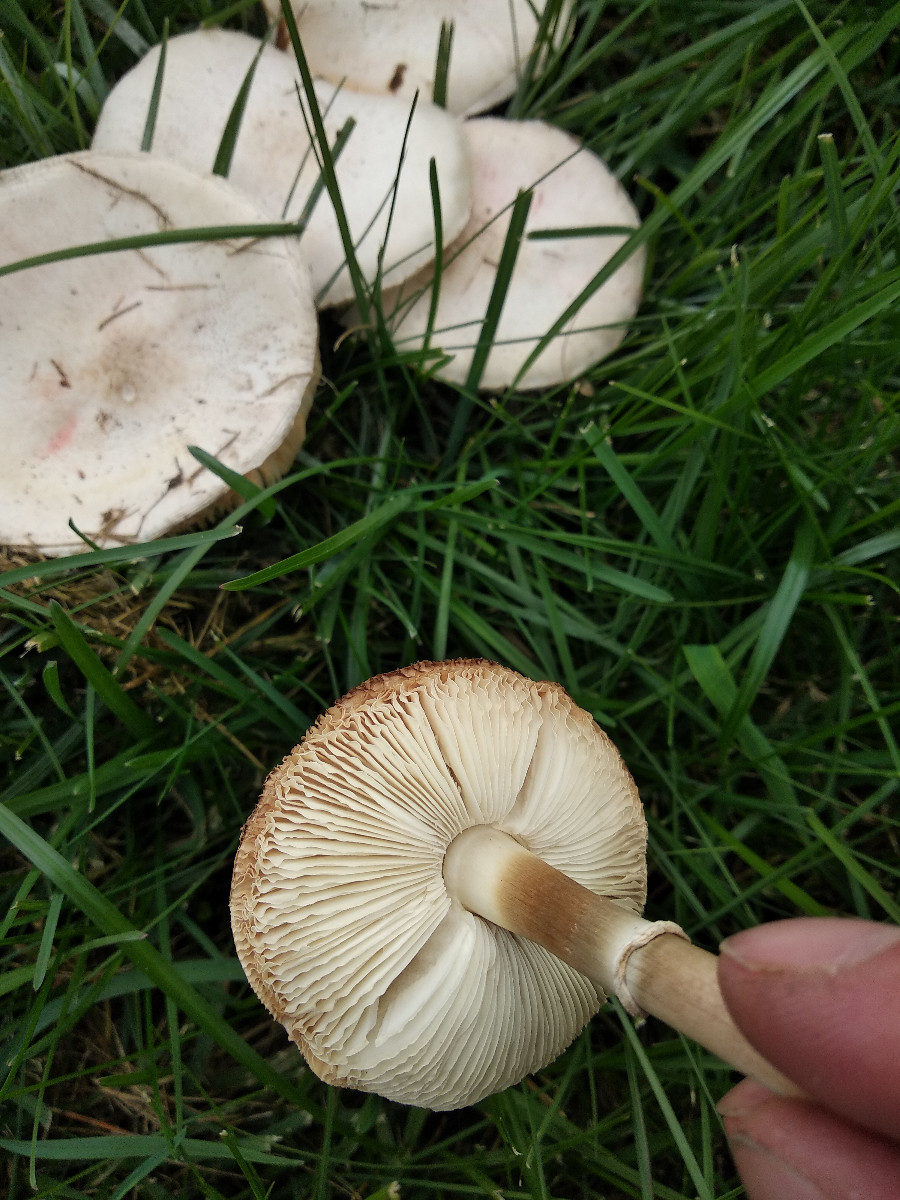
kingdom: Fungi
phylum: Basidiomycota
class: Agaricomycetes
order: Agaricales
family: Agaricaceae
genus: Leucoagaricus
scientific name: Leucoagaricus leucothites
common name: rosabladet silkehat
